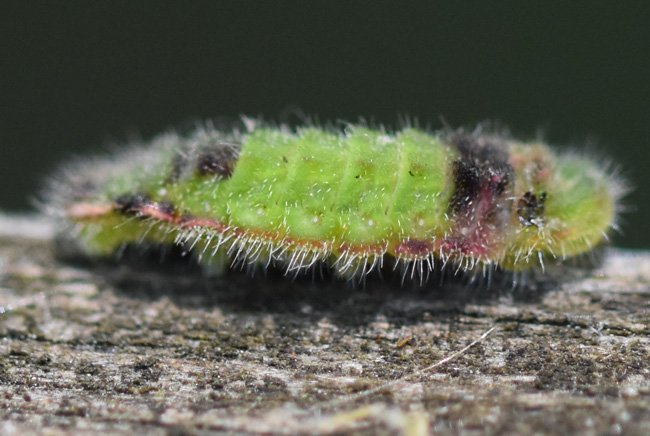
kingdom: Animalia
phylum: Arthropoda
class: Insecta
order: Lepidoptera
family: Lycaenidae
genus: Satyrium
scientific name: Satyrium
